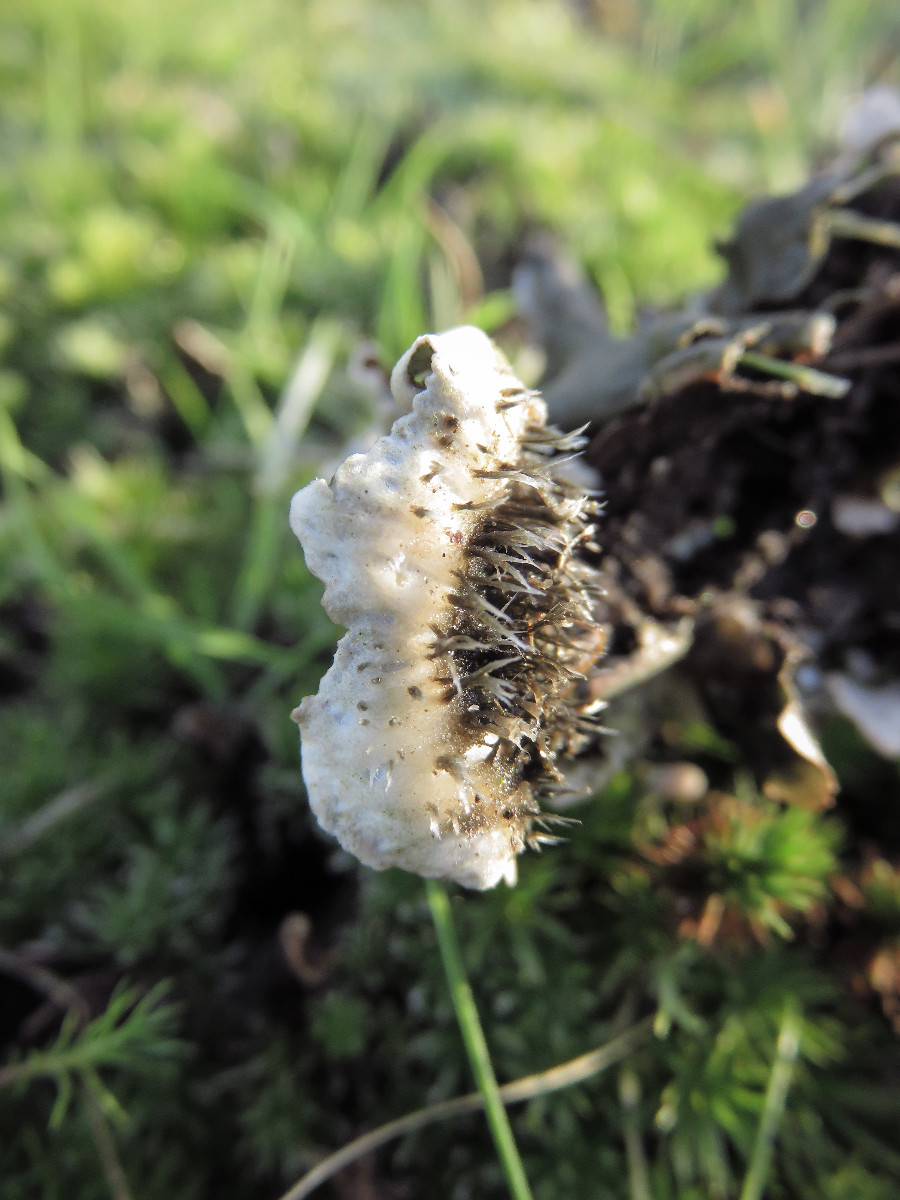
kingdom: Fungi
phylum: Ascomycota
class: Lecanoromycetes
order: Peltigerales
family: Peltigeraceae
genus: Peltigera
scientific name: Peltigera neckeri
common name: glinsende skjoldlav
